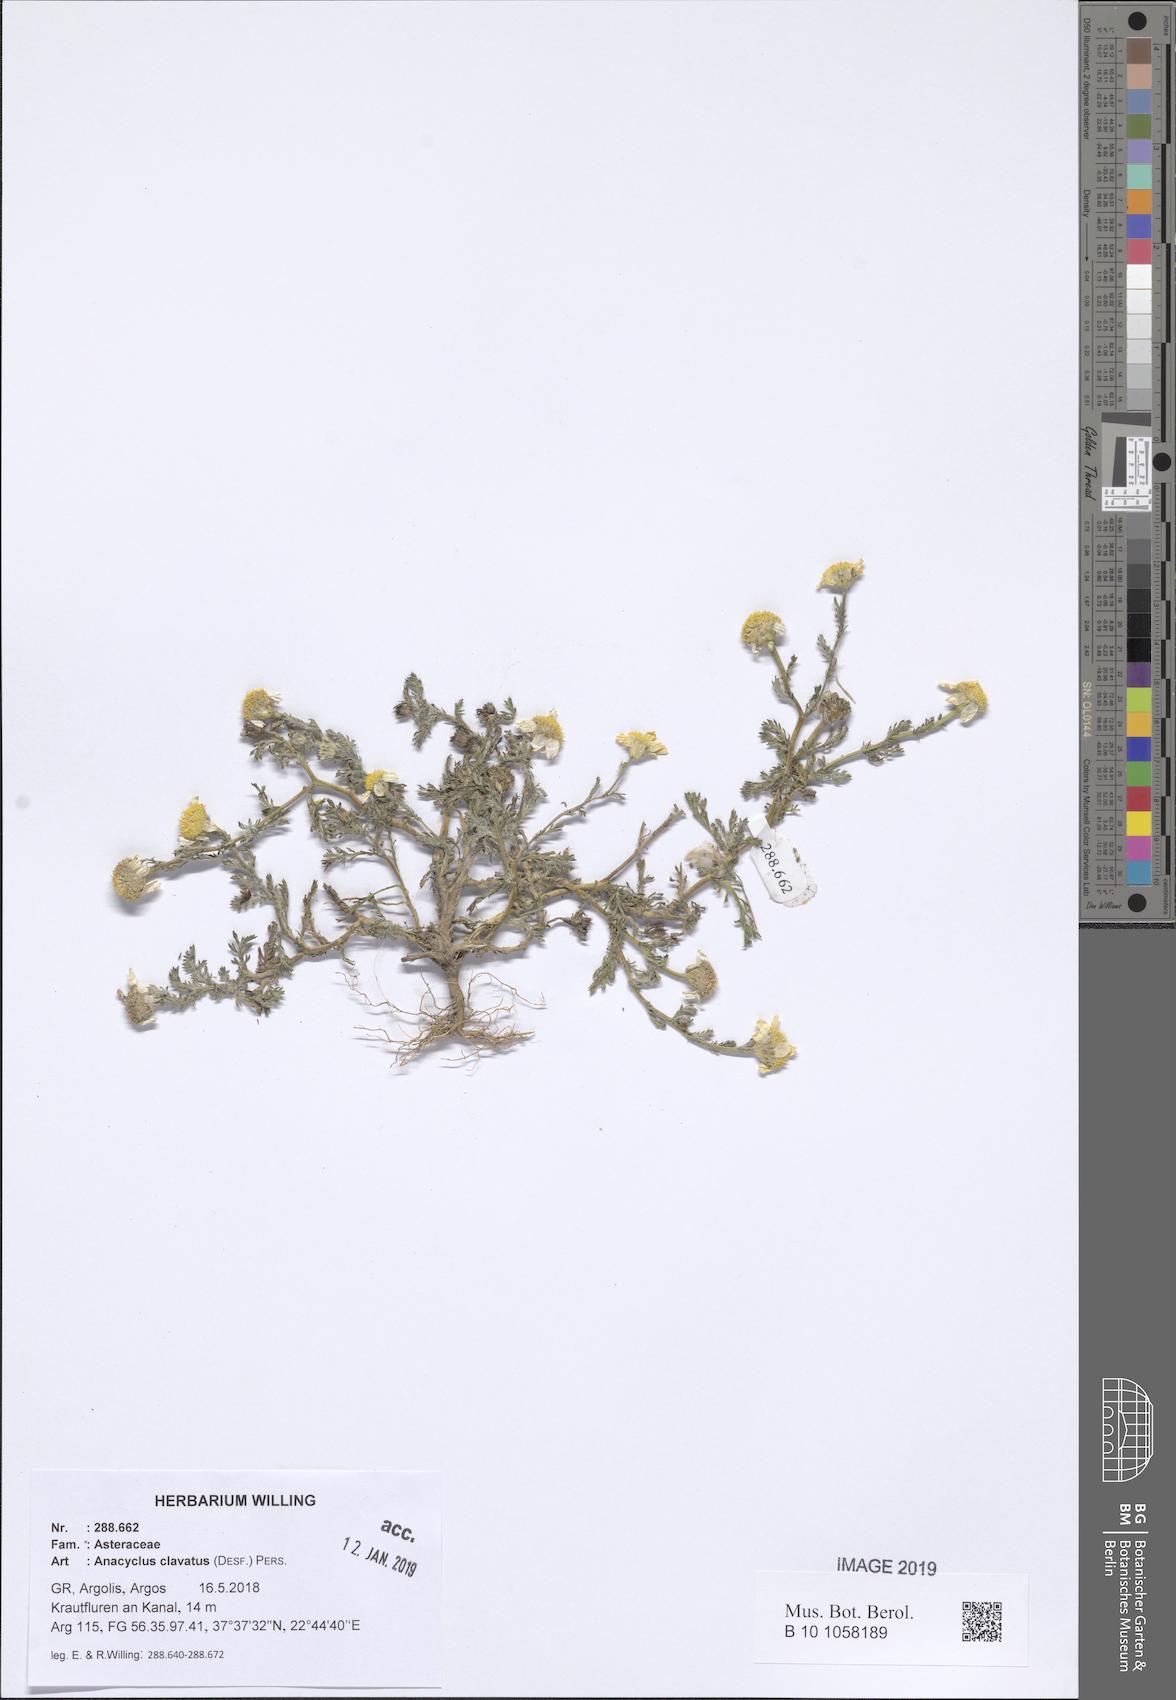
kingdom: Plantae
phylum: Tracheophyta
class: Magnoliopsida
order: Asterales
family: Asteraceae
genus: Anacyclus
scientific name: Anacyclus clavatus
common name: Whitebuttons
